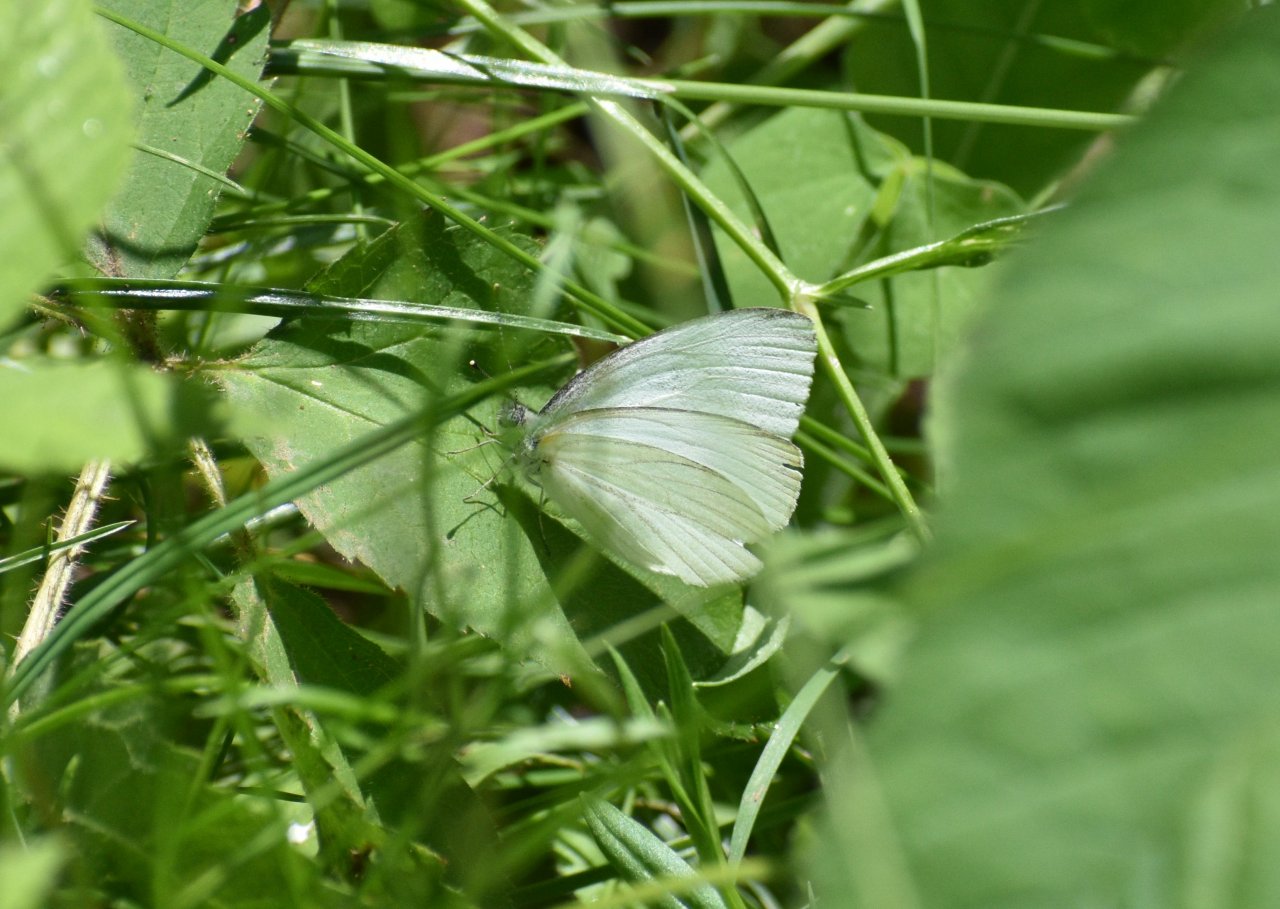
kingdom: Animalia
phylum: Arthropoda
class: Insecta
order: Lepidoptera
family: Pieridae
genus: Pieris
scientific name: Pieris oleracea
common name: Mustard White
